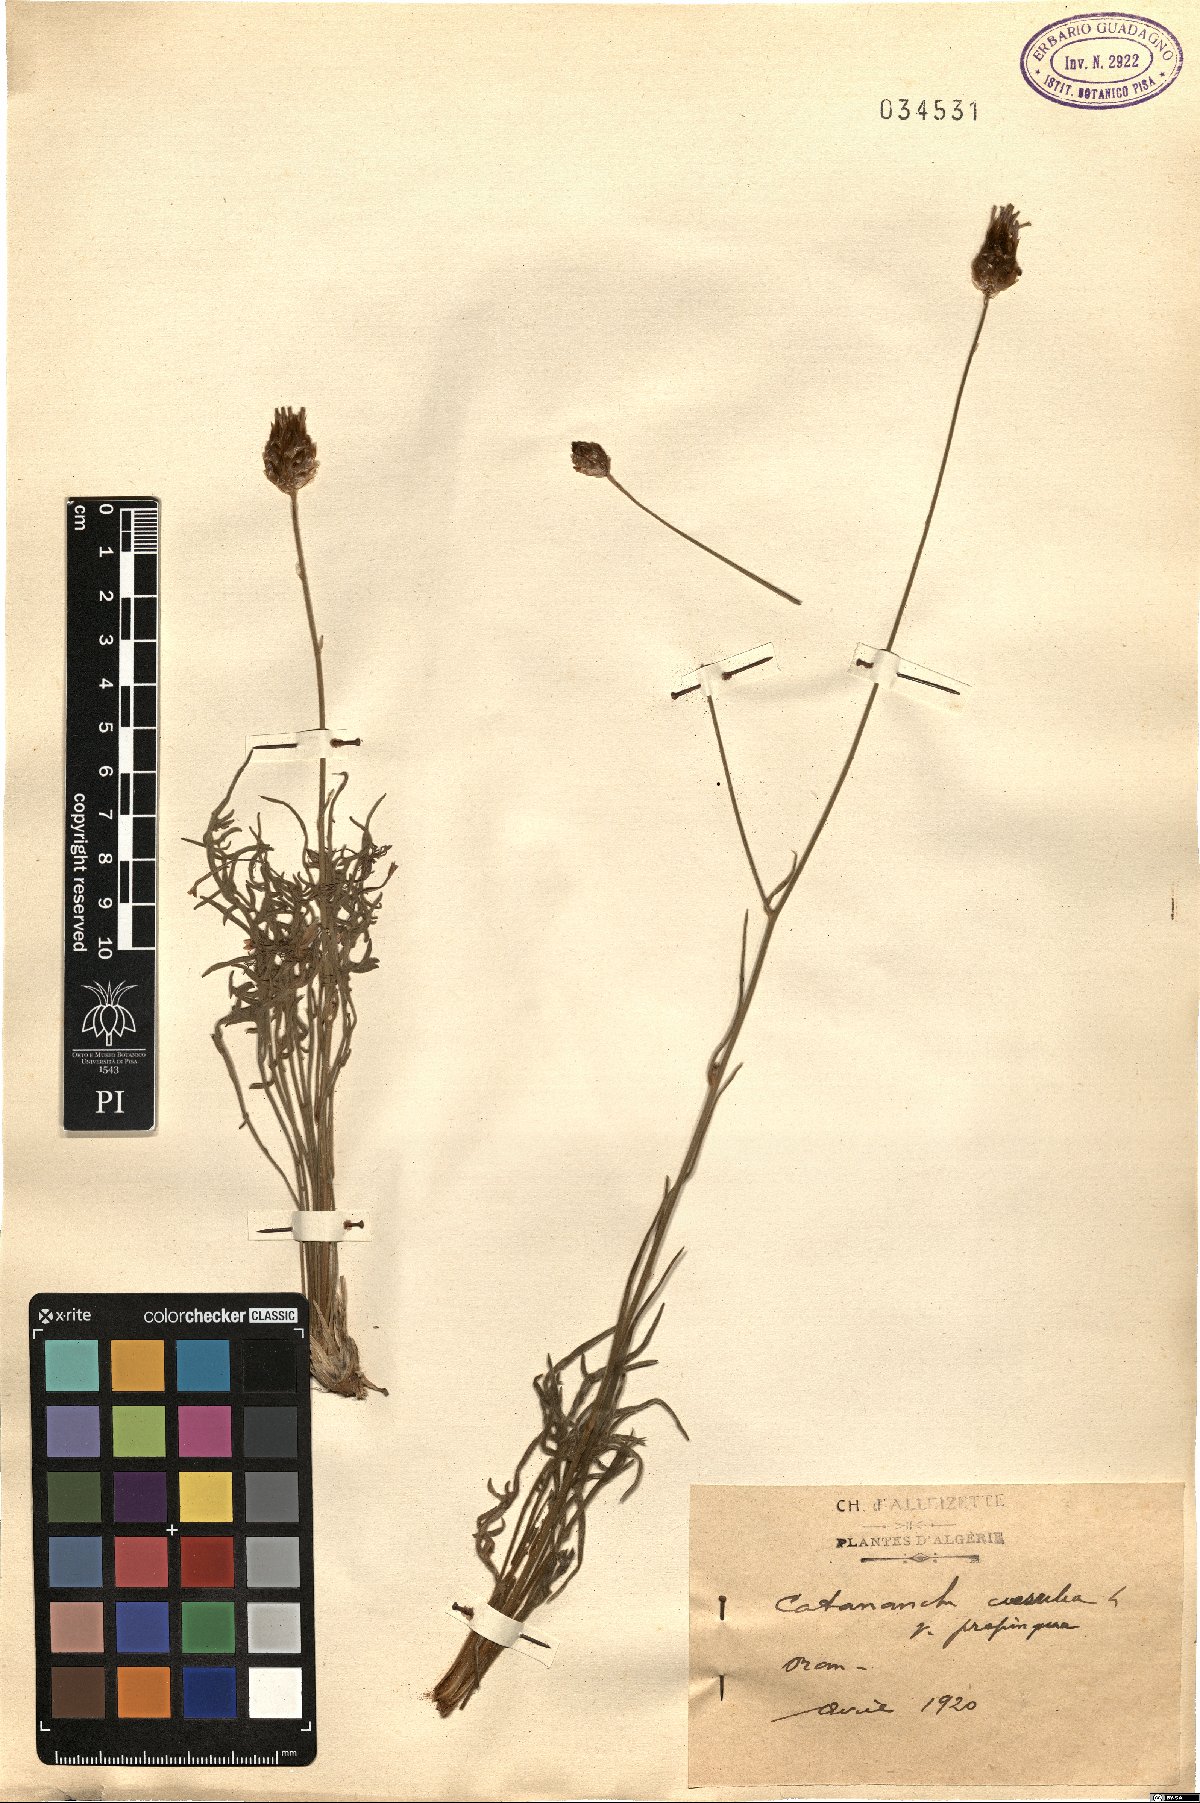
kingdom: Plantae
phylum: Tracheophyta
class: Magnoliopsida
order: Asterales
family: Asteraceae
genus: Catananche
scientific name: Catananche caerulea
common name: Blue cupidone
